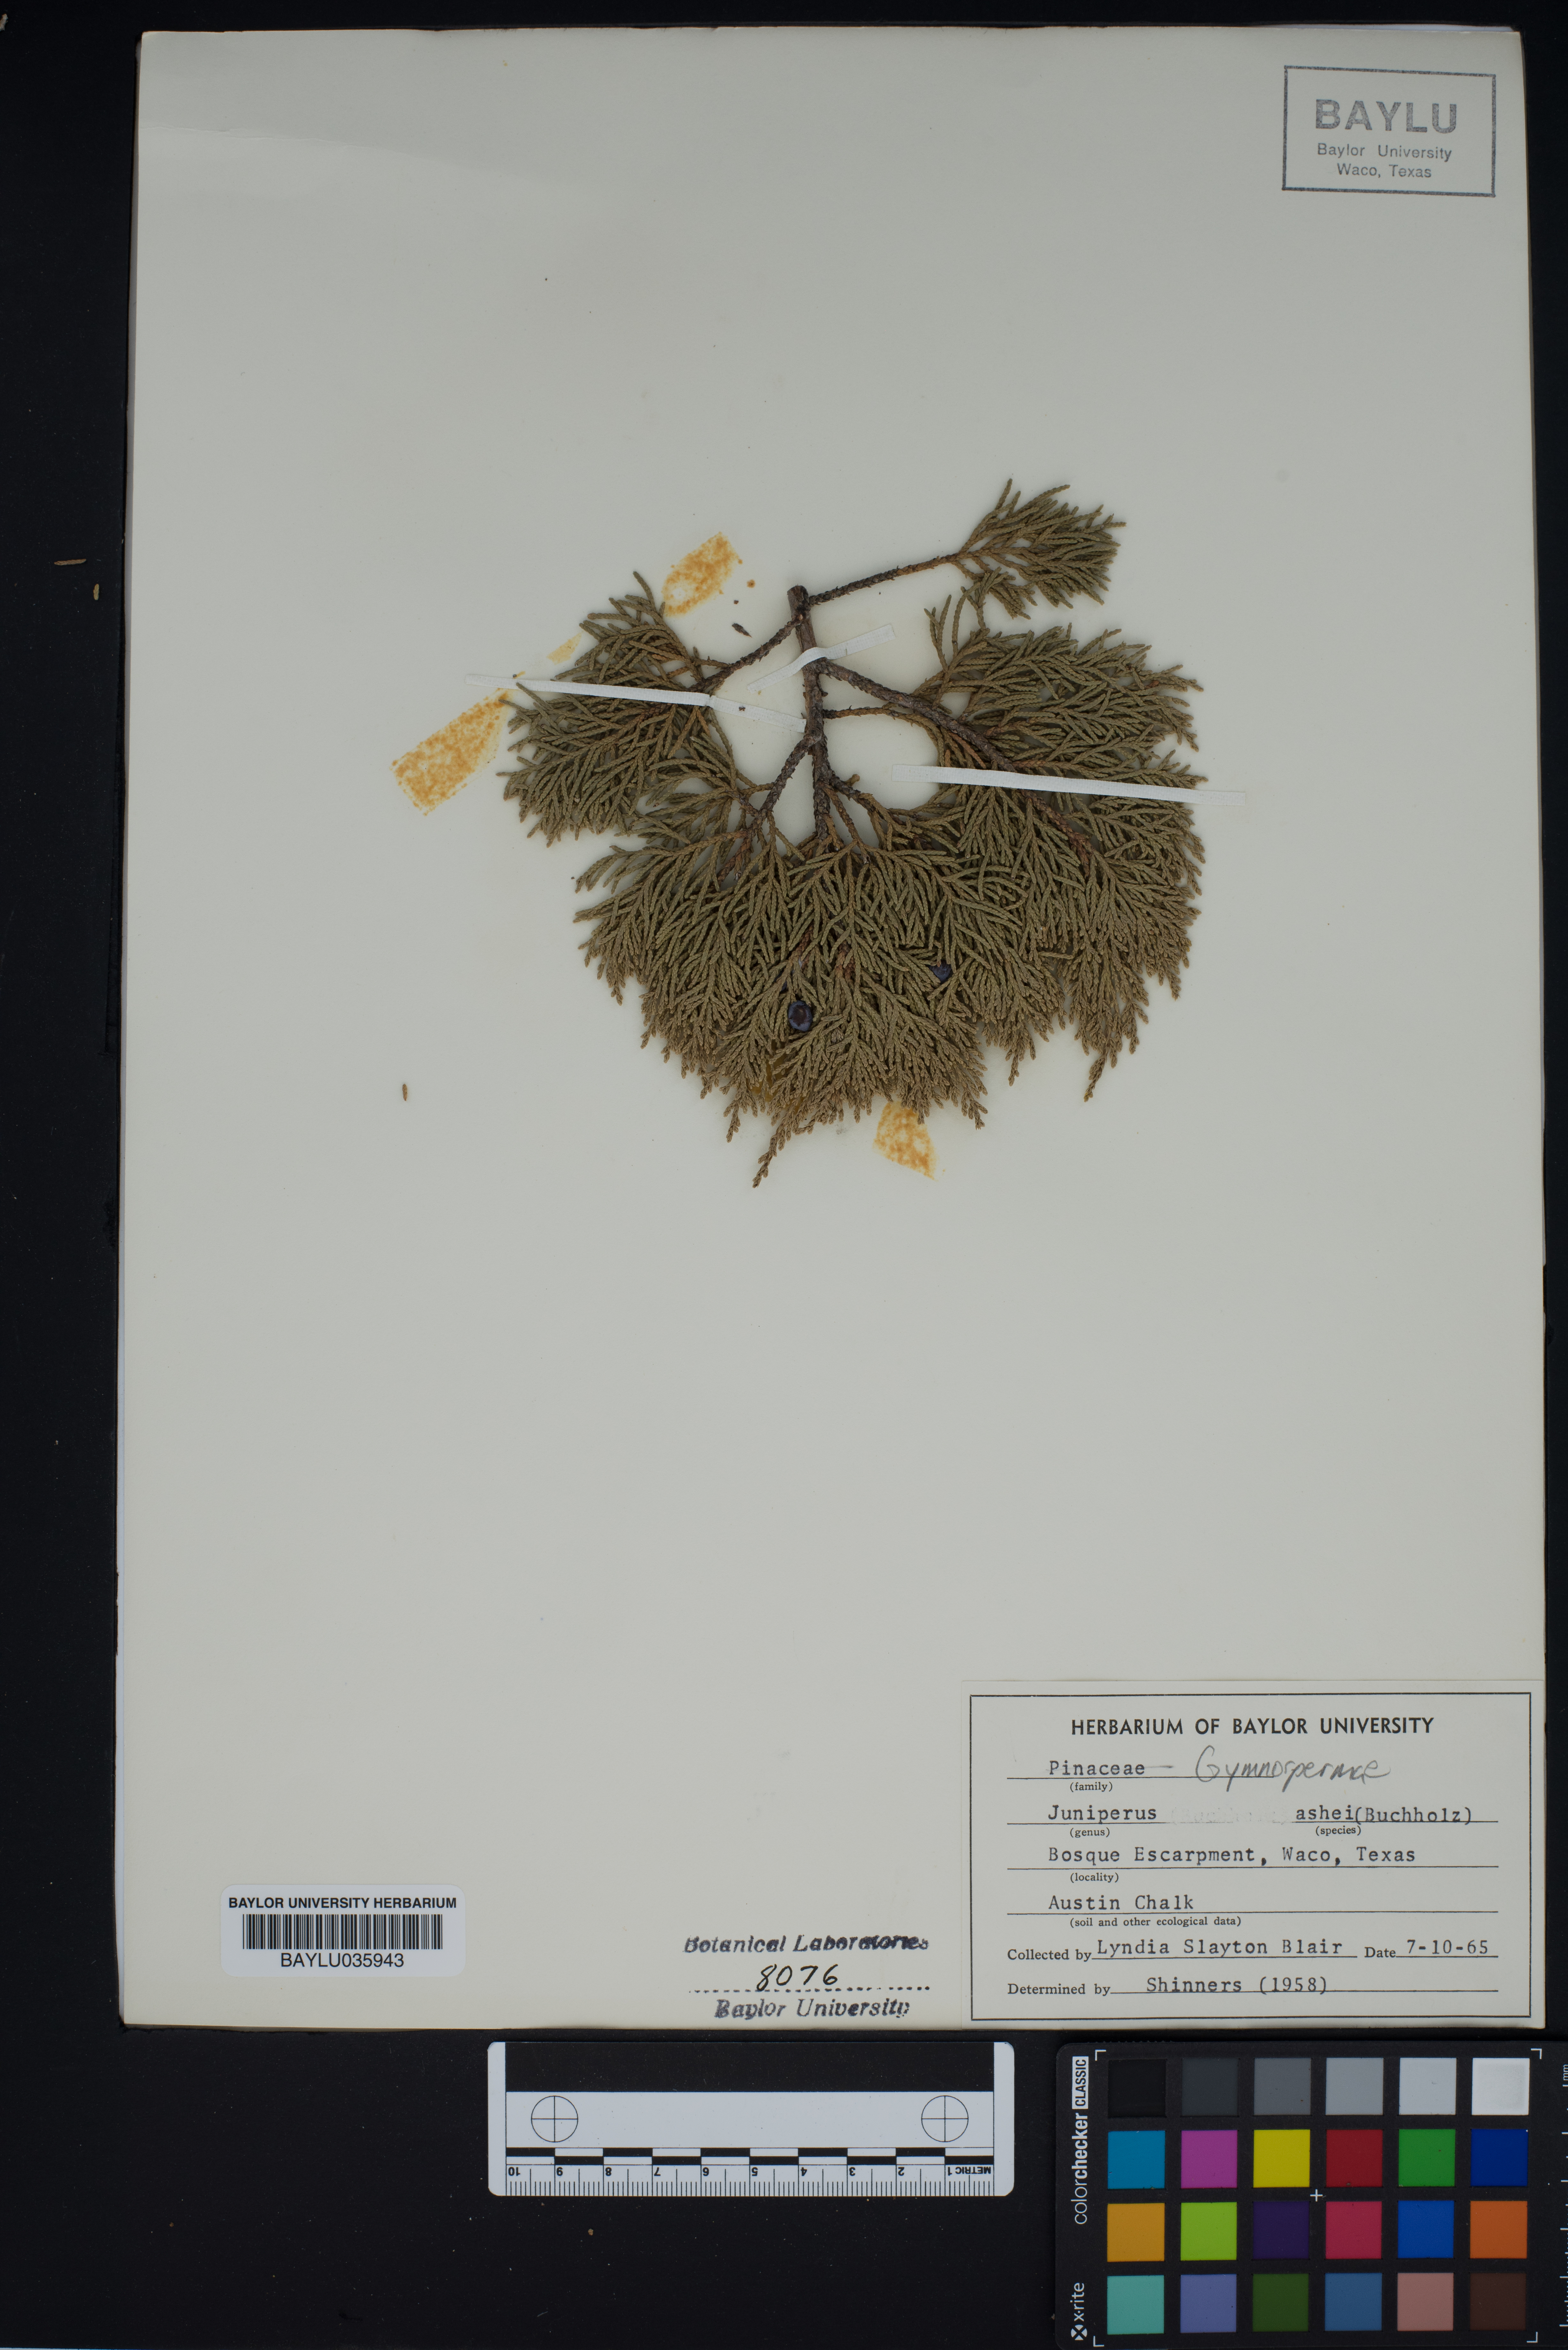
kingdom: Plantae
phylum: Tracheophyta
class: Pinopsida
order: Pinales
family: Cupressaceae
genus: Juniperus
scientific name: Juniperus ashei
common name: Mexican juniper
